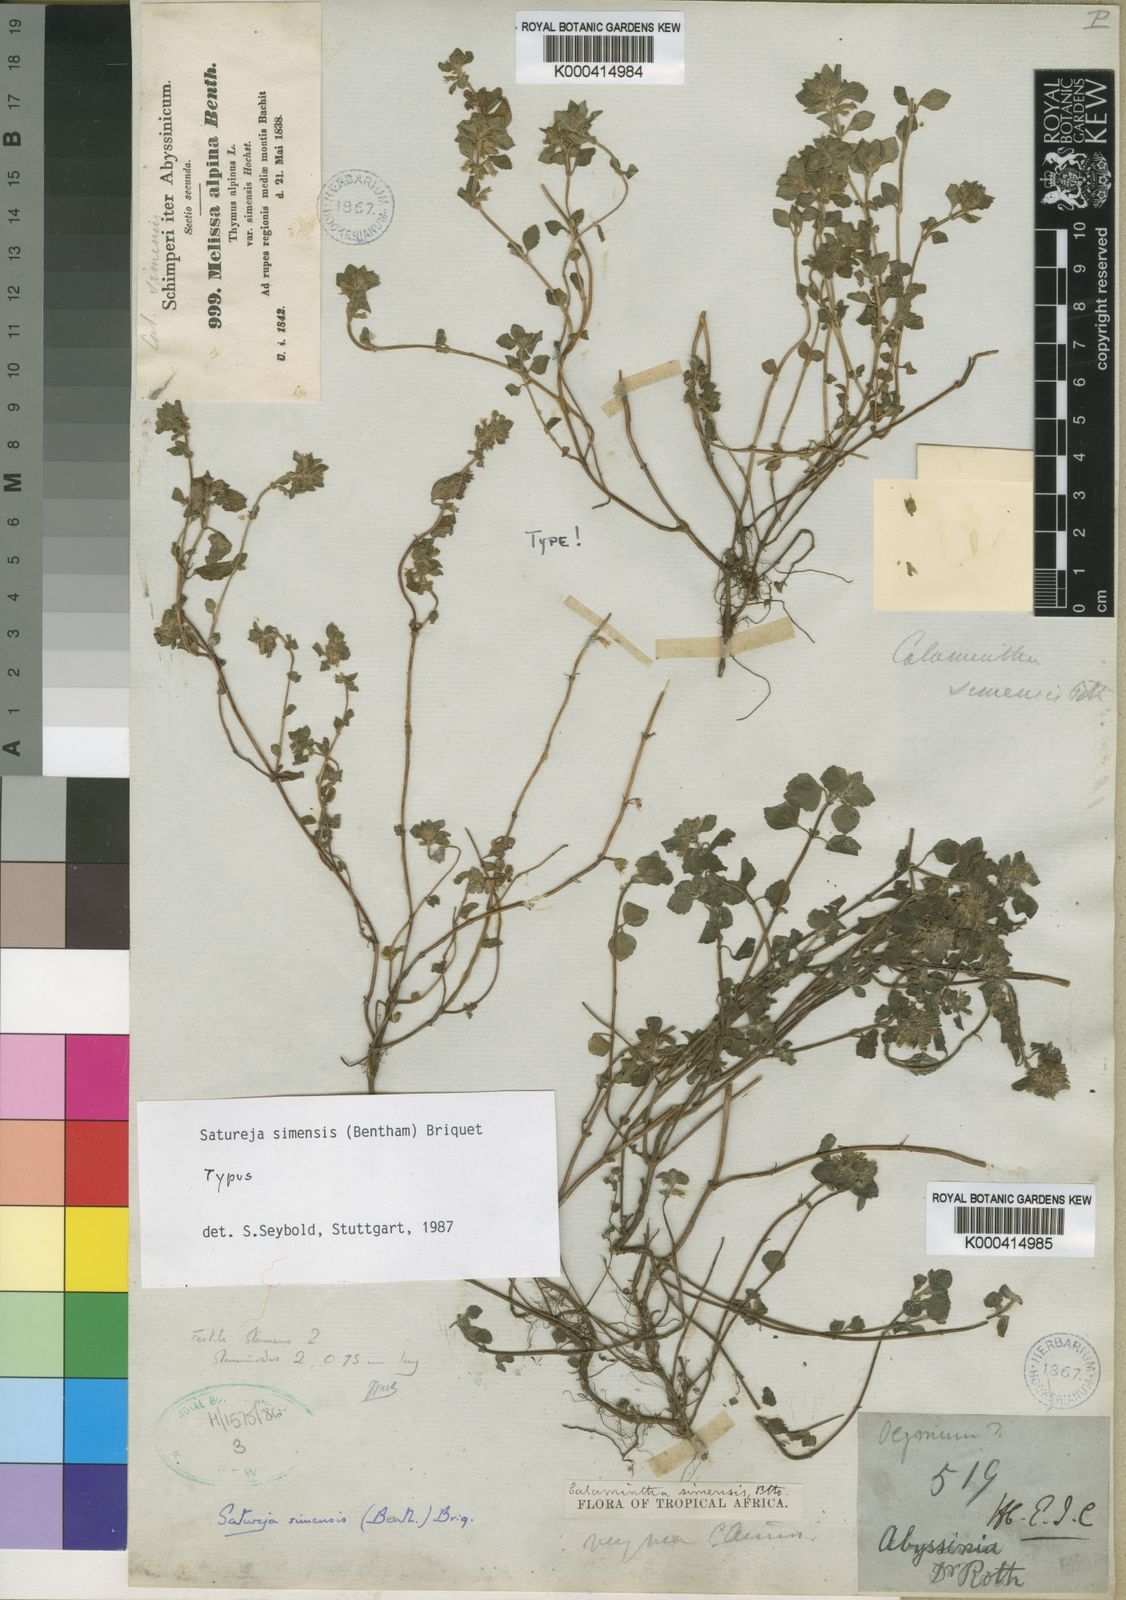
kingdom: Plantae
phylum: Tracheophyta
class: Magnoliopsida
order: Lamiales
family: Lamiaceae
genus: Clinopodium
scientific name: Clinopodium
